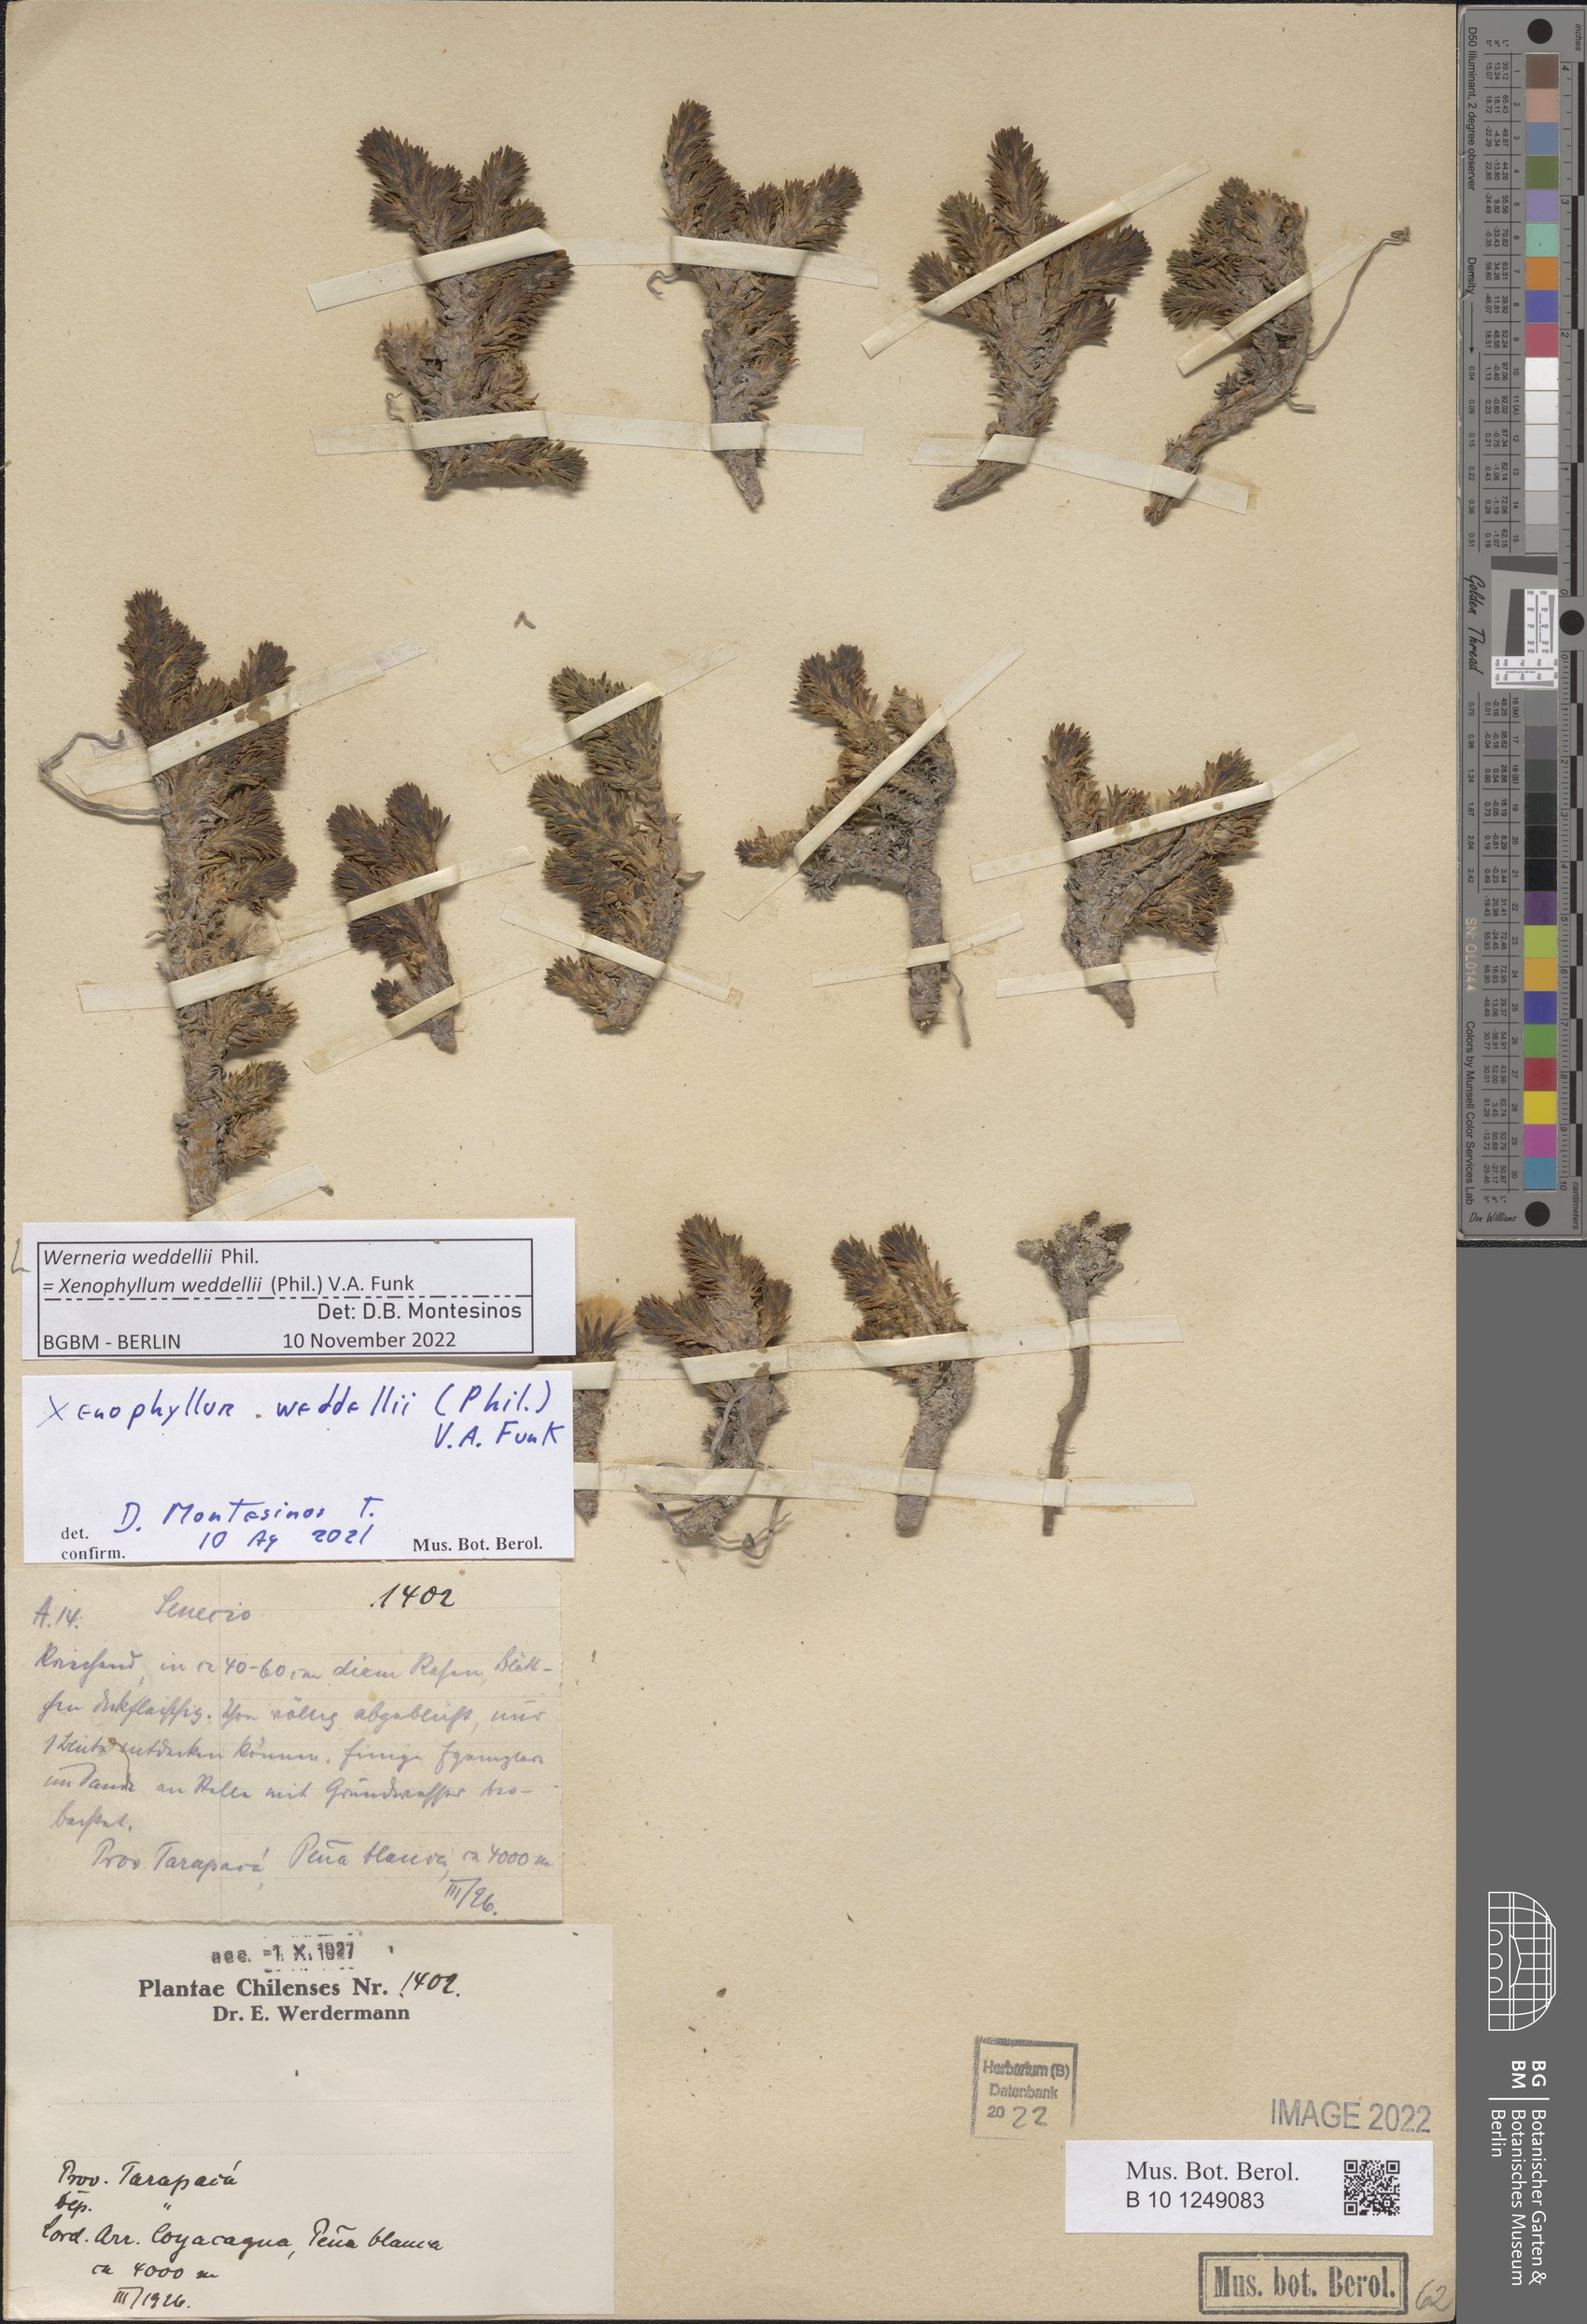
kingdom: Plantae
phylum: Tracheophyta
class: Magnoliopsida
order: Asterales
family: Asteraceae
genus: Werneria
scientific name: Werneria weddellii
